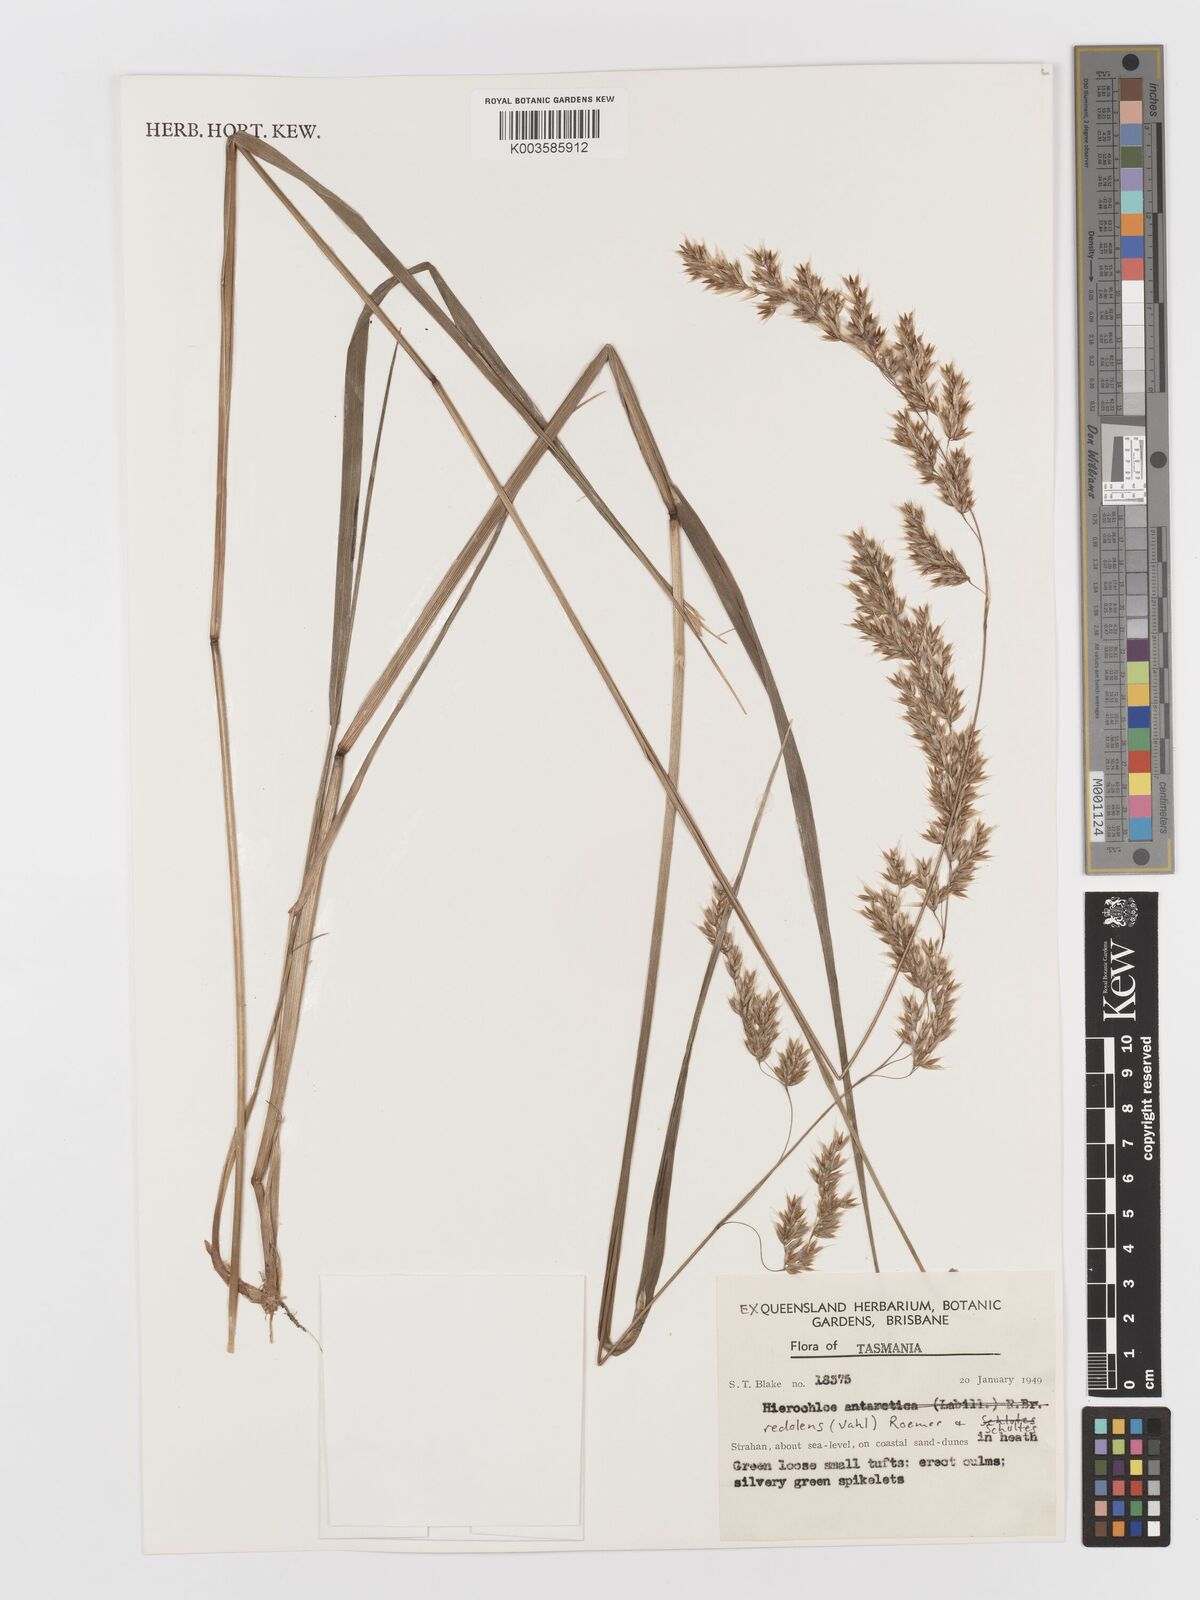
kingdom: Plantae
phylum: Tracheophyta
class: Liliopsida
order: Poales
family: Poaceae
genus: Anthoxanthum
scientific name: Anthoxanthum redolens
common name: Sweet holy grass
